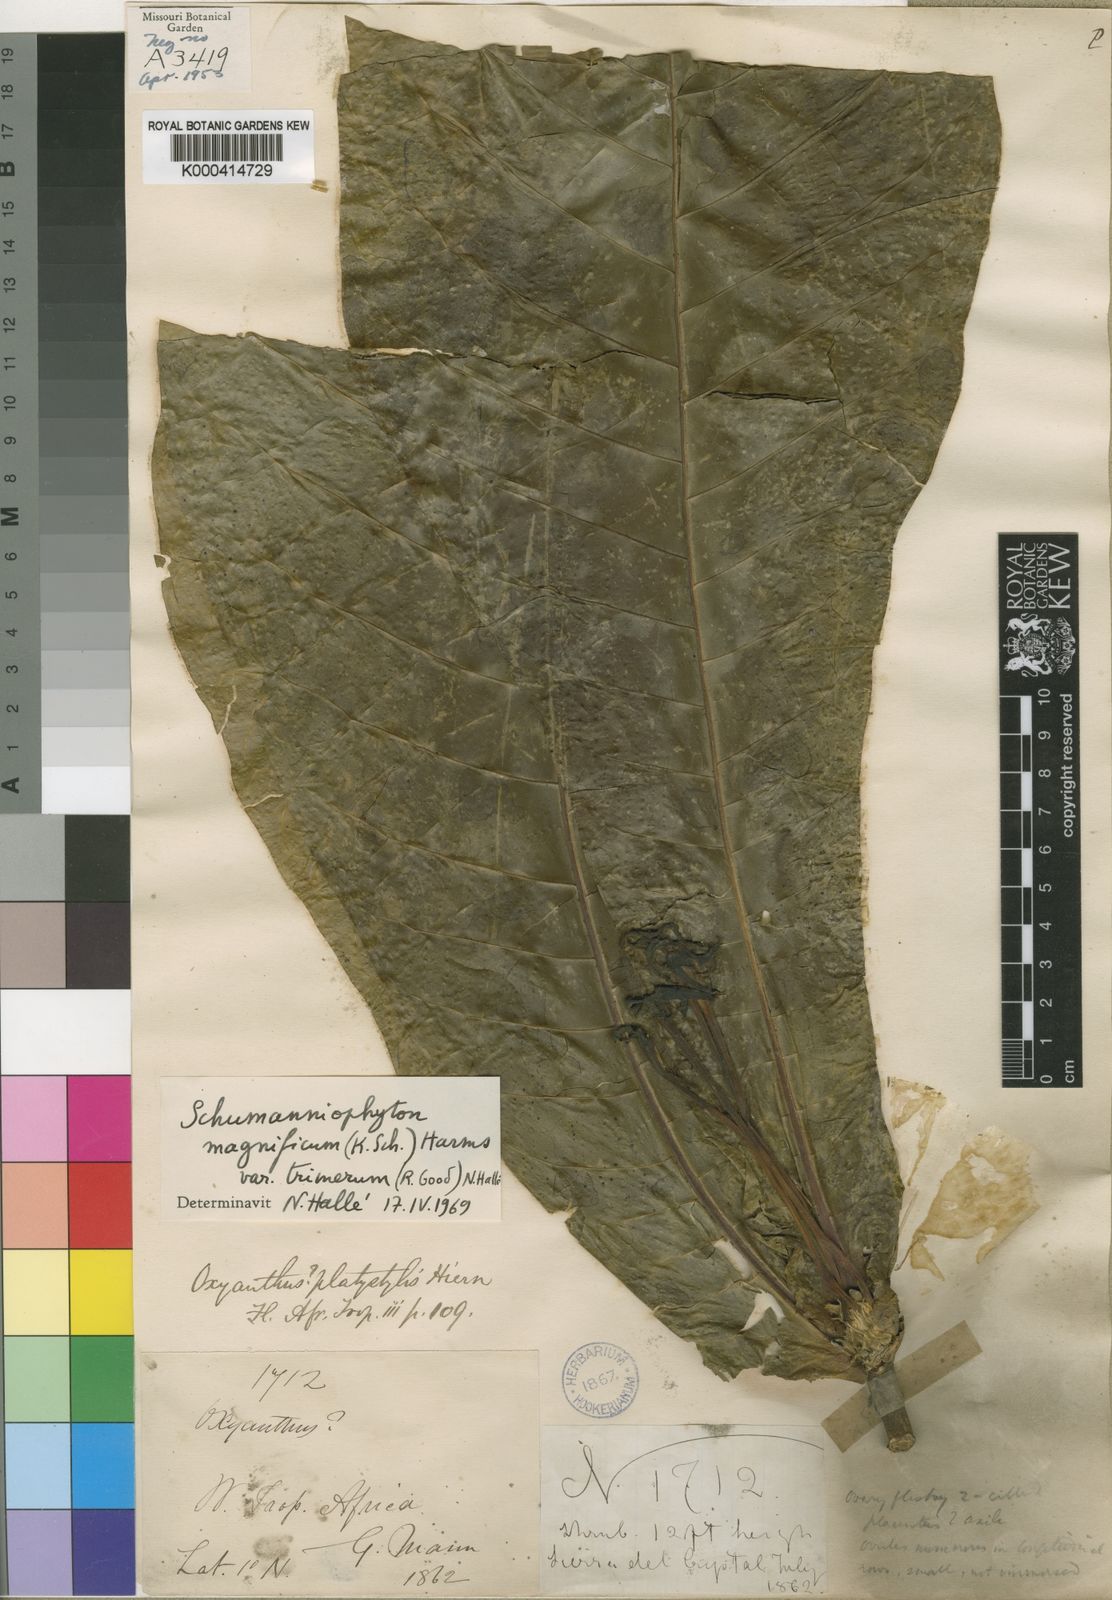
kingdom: Plantae
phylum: Tracheophyta
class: Magnoliopsida
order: Gentianales
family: Rubiaceae
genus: Schumanniophyton
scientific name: Schumanniophyton magnificum
